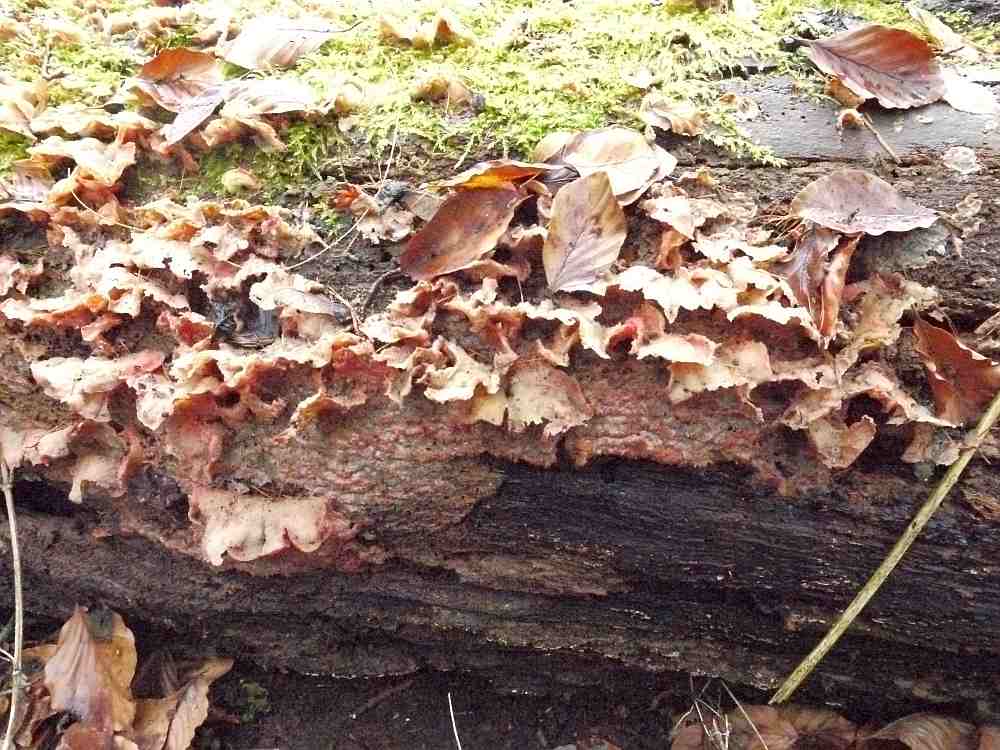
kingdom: Fungi
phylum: Basidiomycota
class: Agaricomycetes
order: Polyporales
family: Meruliaceae
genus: Phlebia
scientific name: Phlebia tremellosa
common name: bævrende åresvamp
